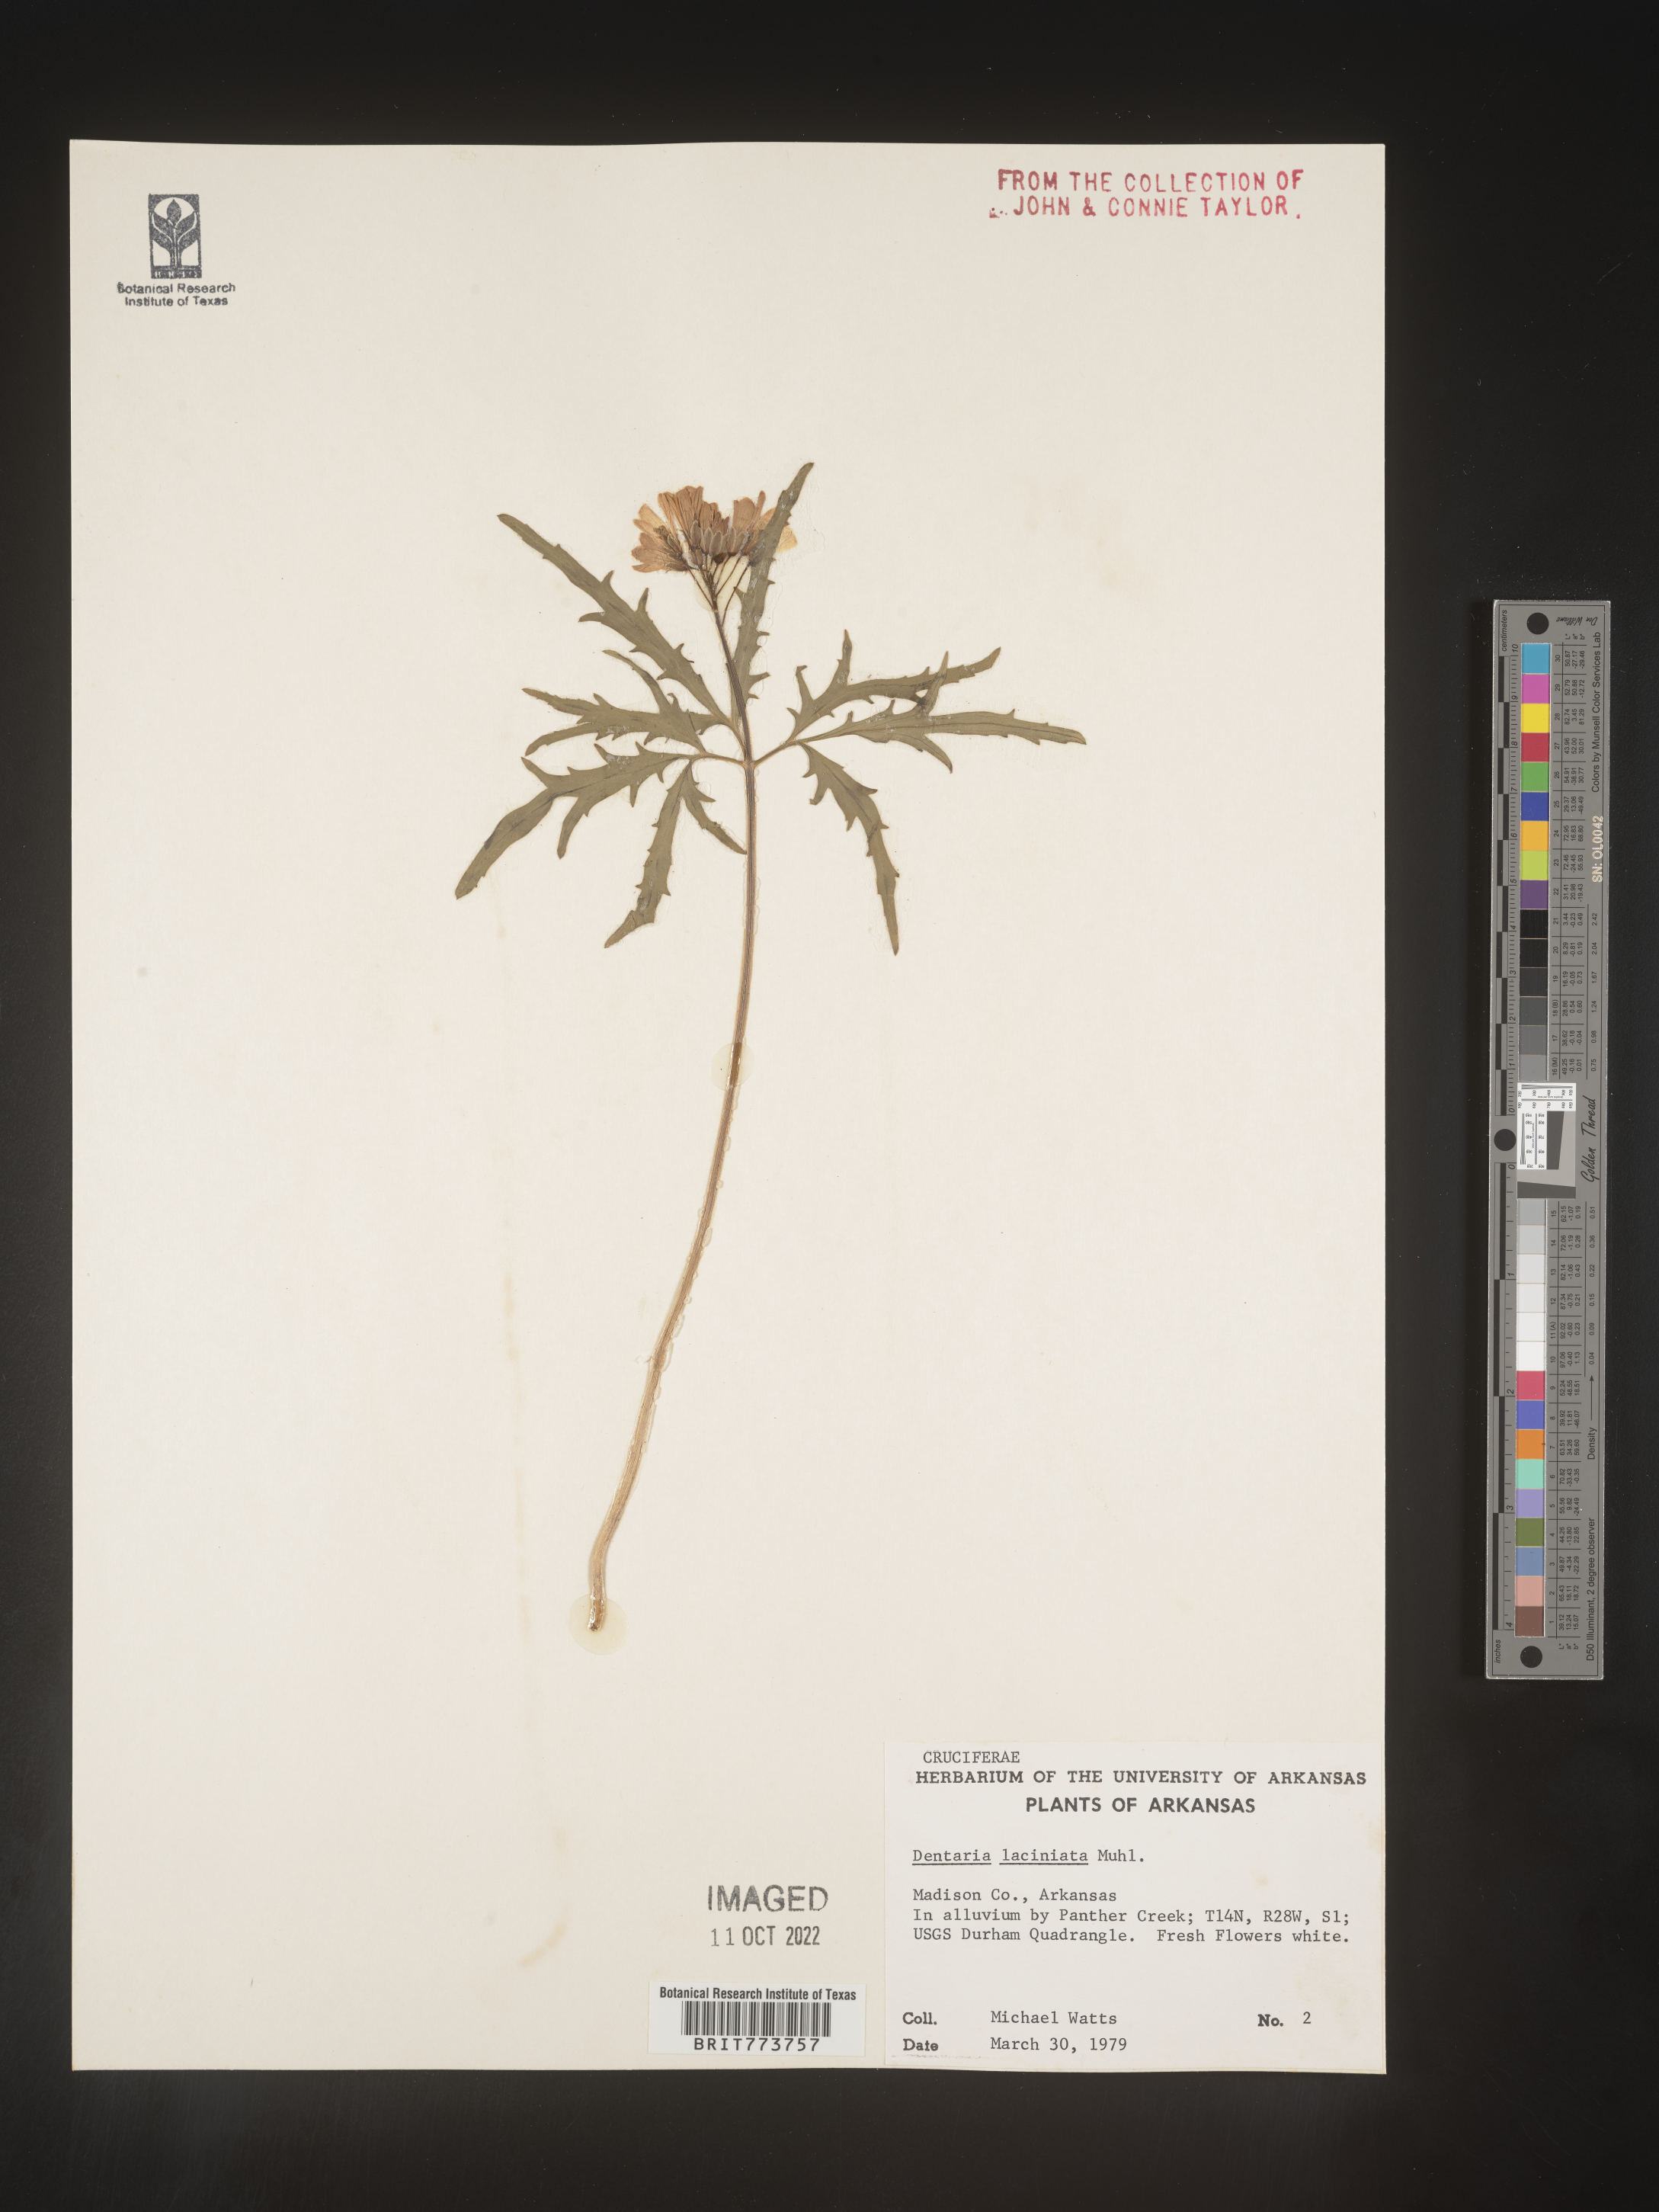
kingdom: Plantae
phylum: Tracheophyta
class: Magnoliopsida
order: Brassicales
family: Brassicaceae
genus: Rorippa
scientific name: Rorippa laciniata
